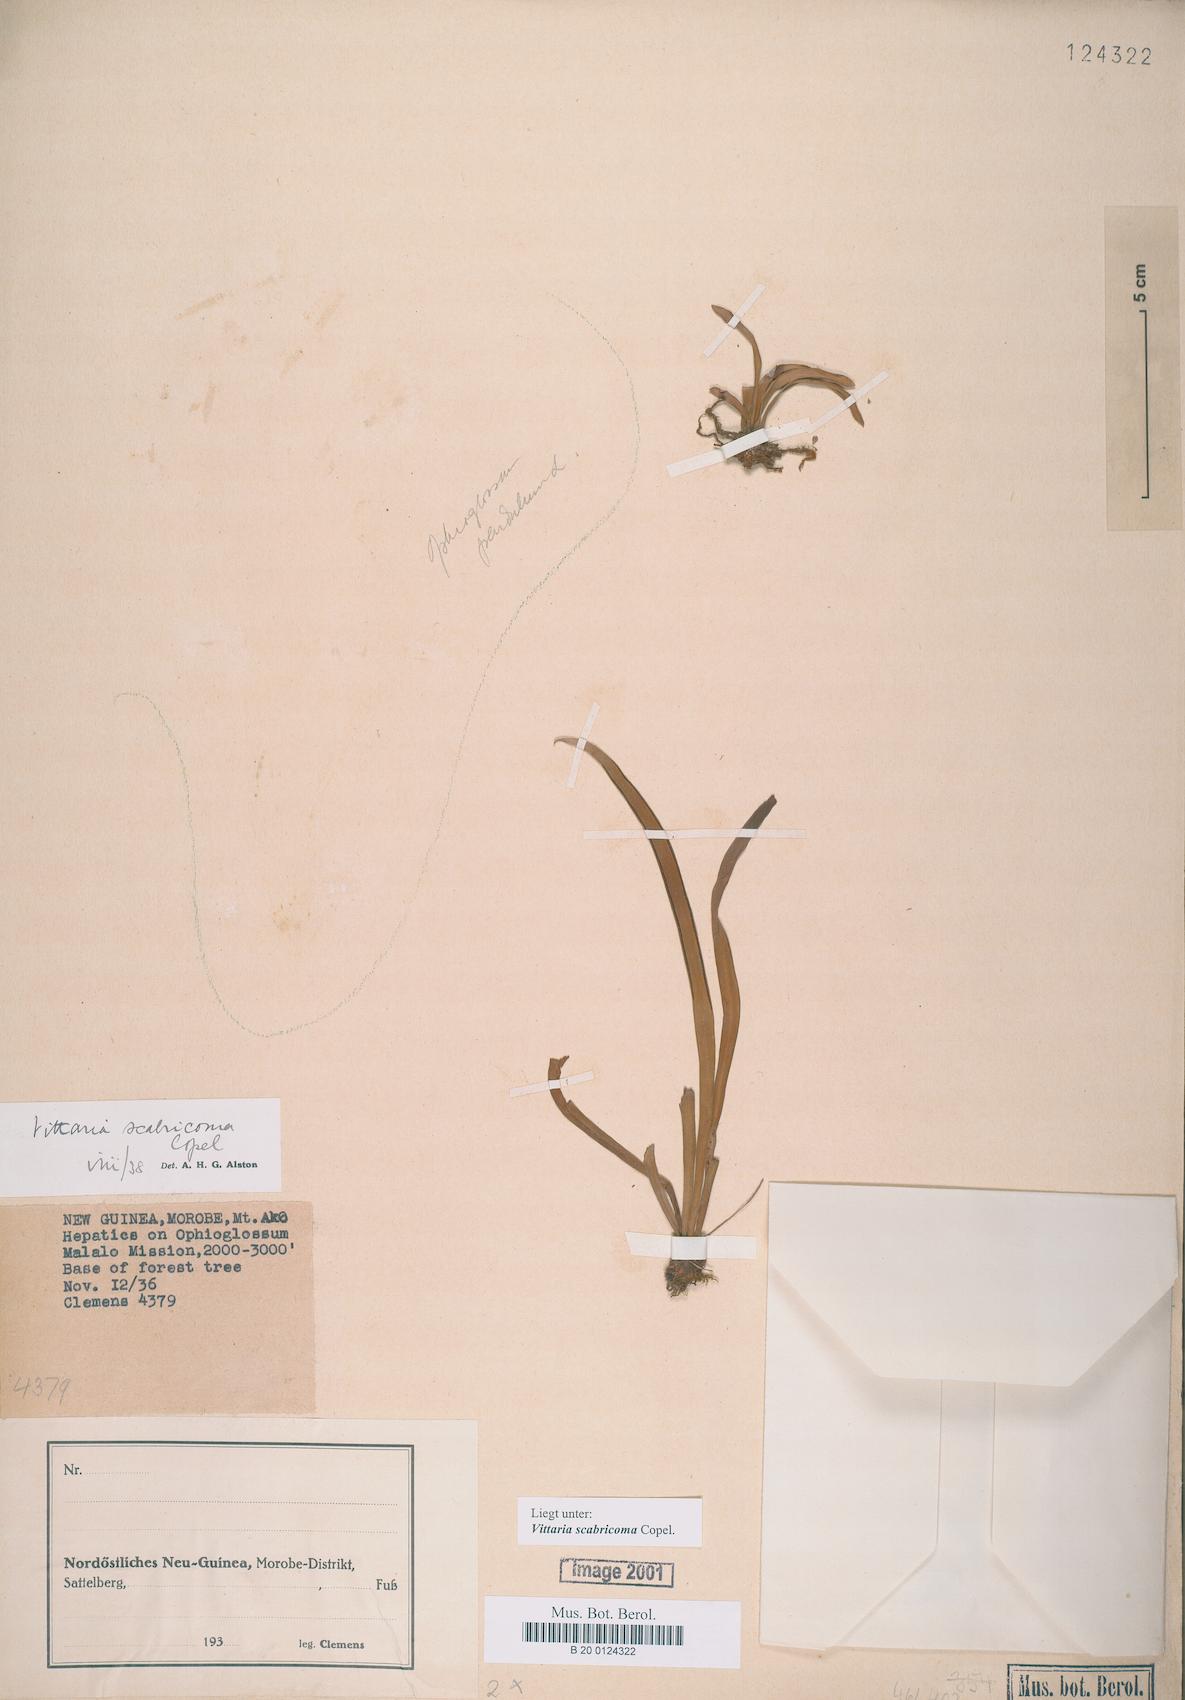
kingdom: Plantae
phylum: Tracheophyta
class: Polypodiopsida
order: Polypodiales
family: Pteridaceae
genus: Haplopteris
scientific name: Haplopteris elongata
